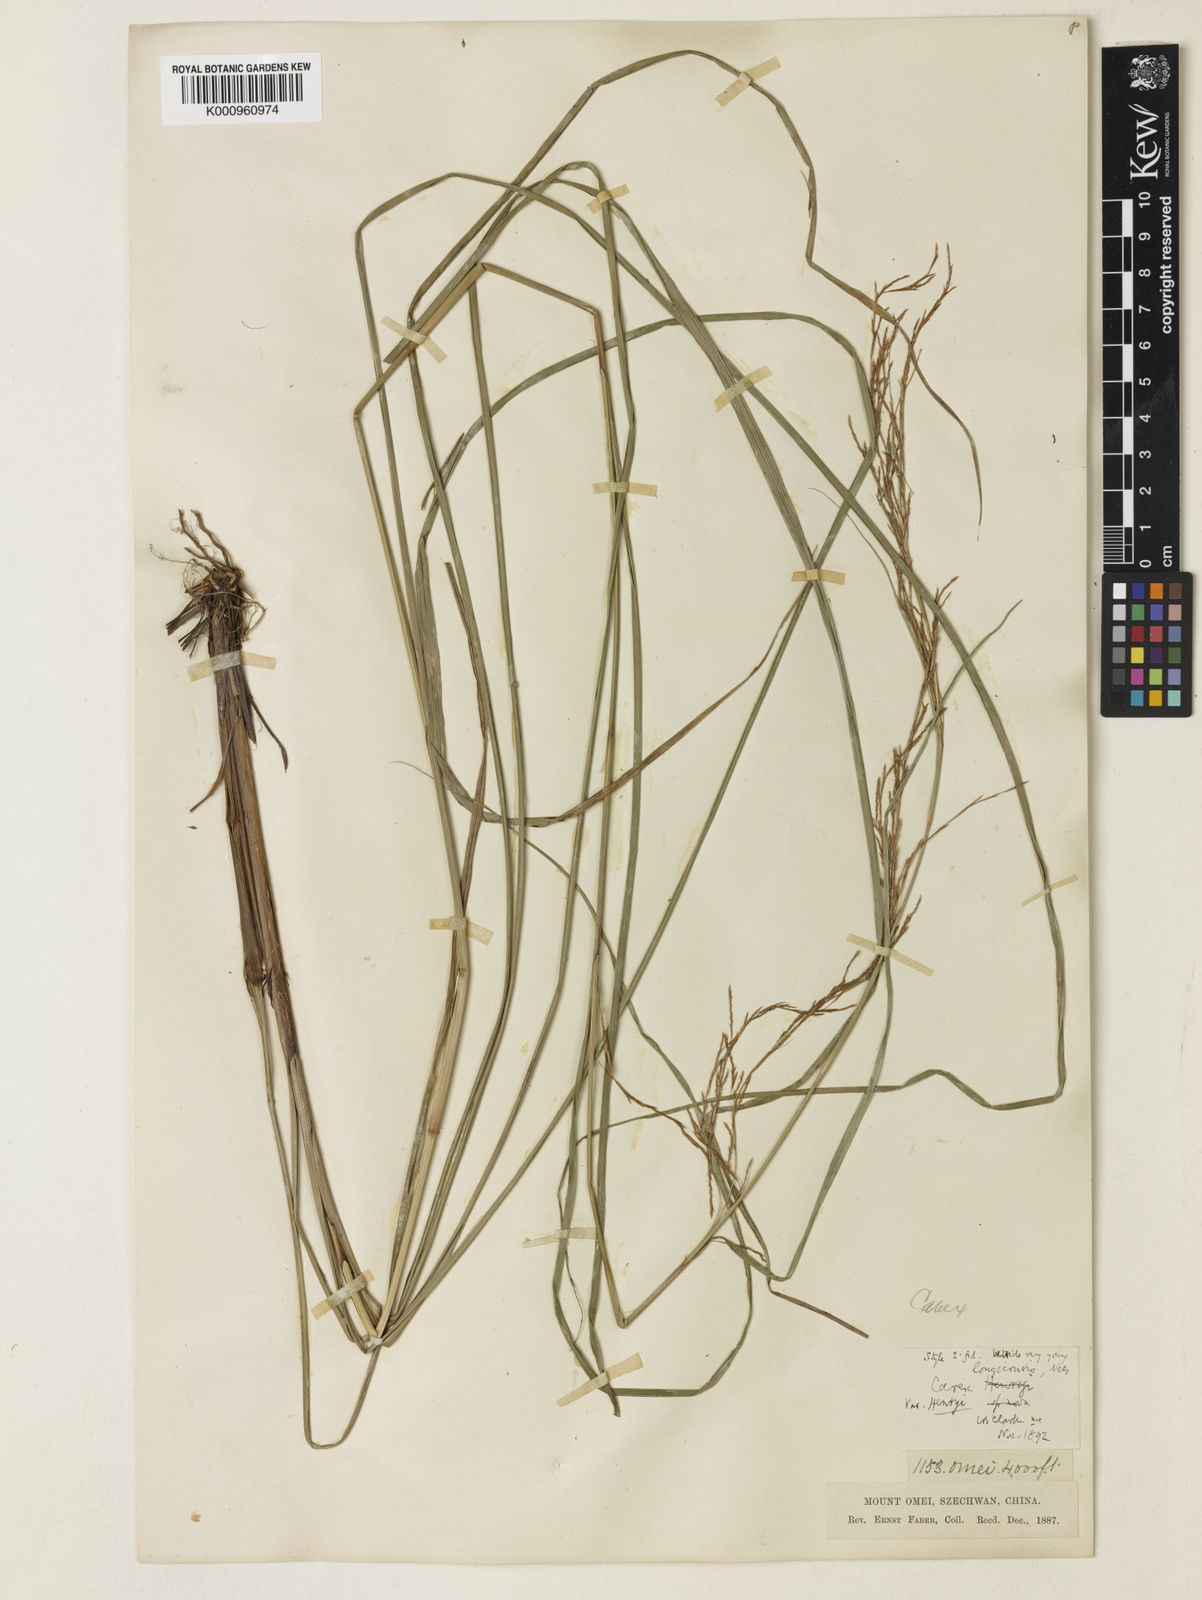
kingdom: Plantae
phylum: Tracheophyta
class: Liliopsida
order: Poales
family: Cyperaceae
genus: Carex
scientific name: Carex longicruris
